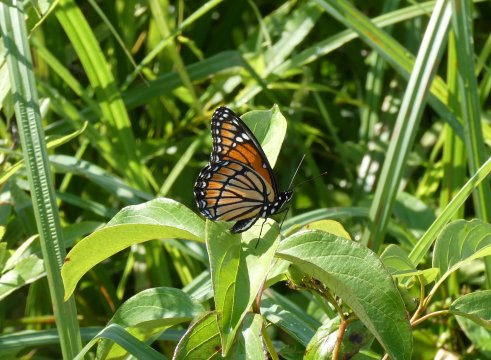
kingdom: Animalia
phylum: Arthropoda
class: Insecta
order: Lepidoptera
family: Nymphalidae
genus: Limenitis
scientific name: Limenitis archippus
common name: Viceroy
